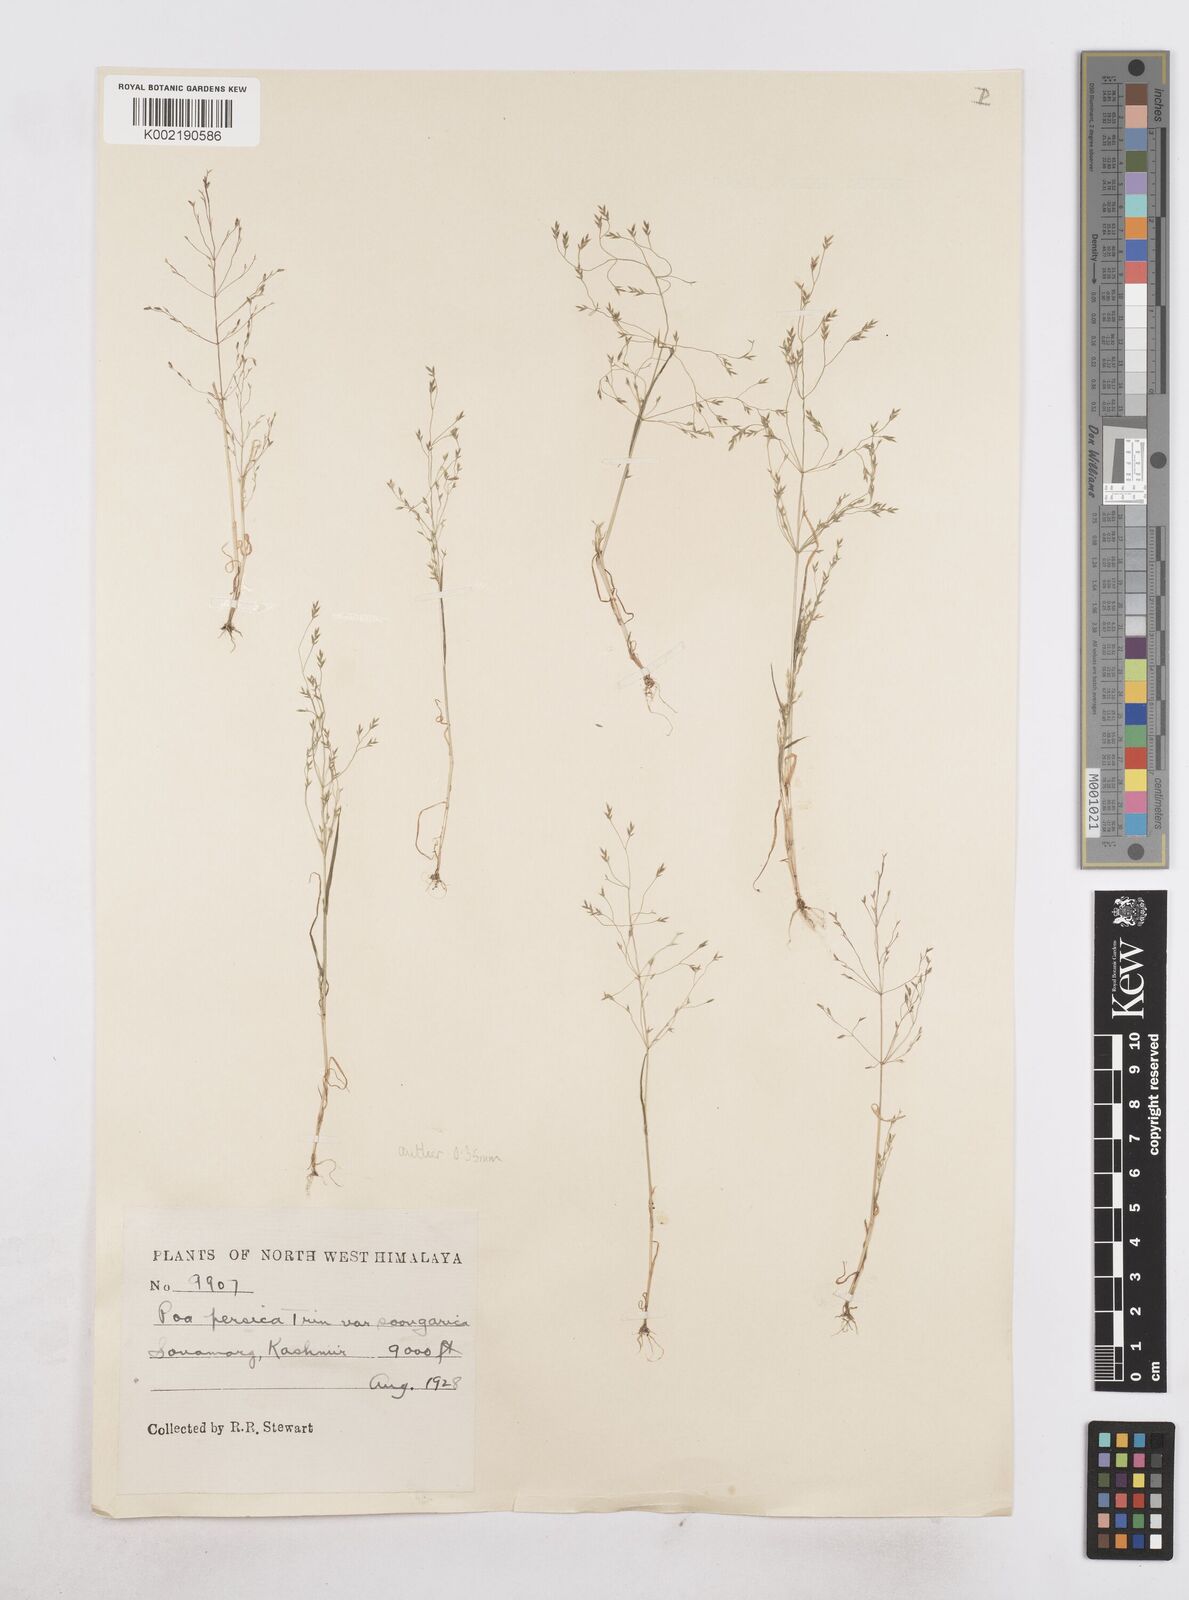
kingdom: Plantae
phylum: Tracheophyta
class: Liliopsida
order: Poales
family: Poaceae
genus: Poa
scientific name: Poa diaphora
